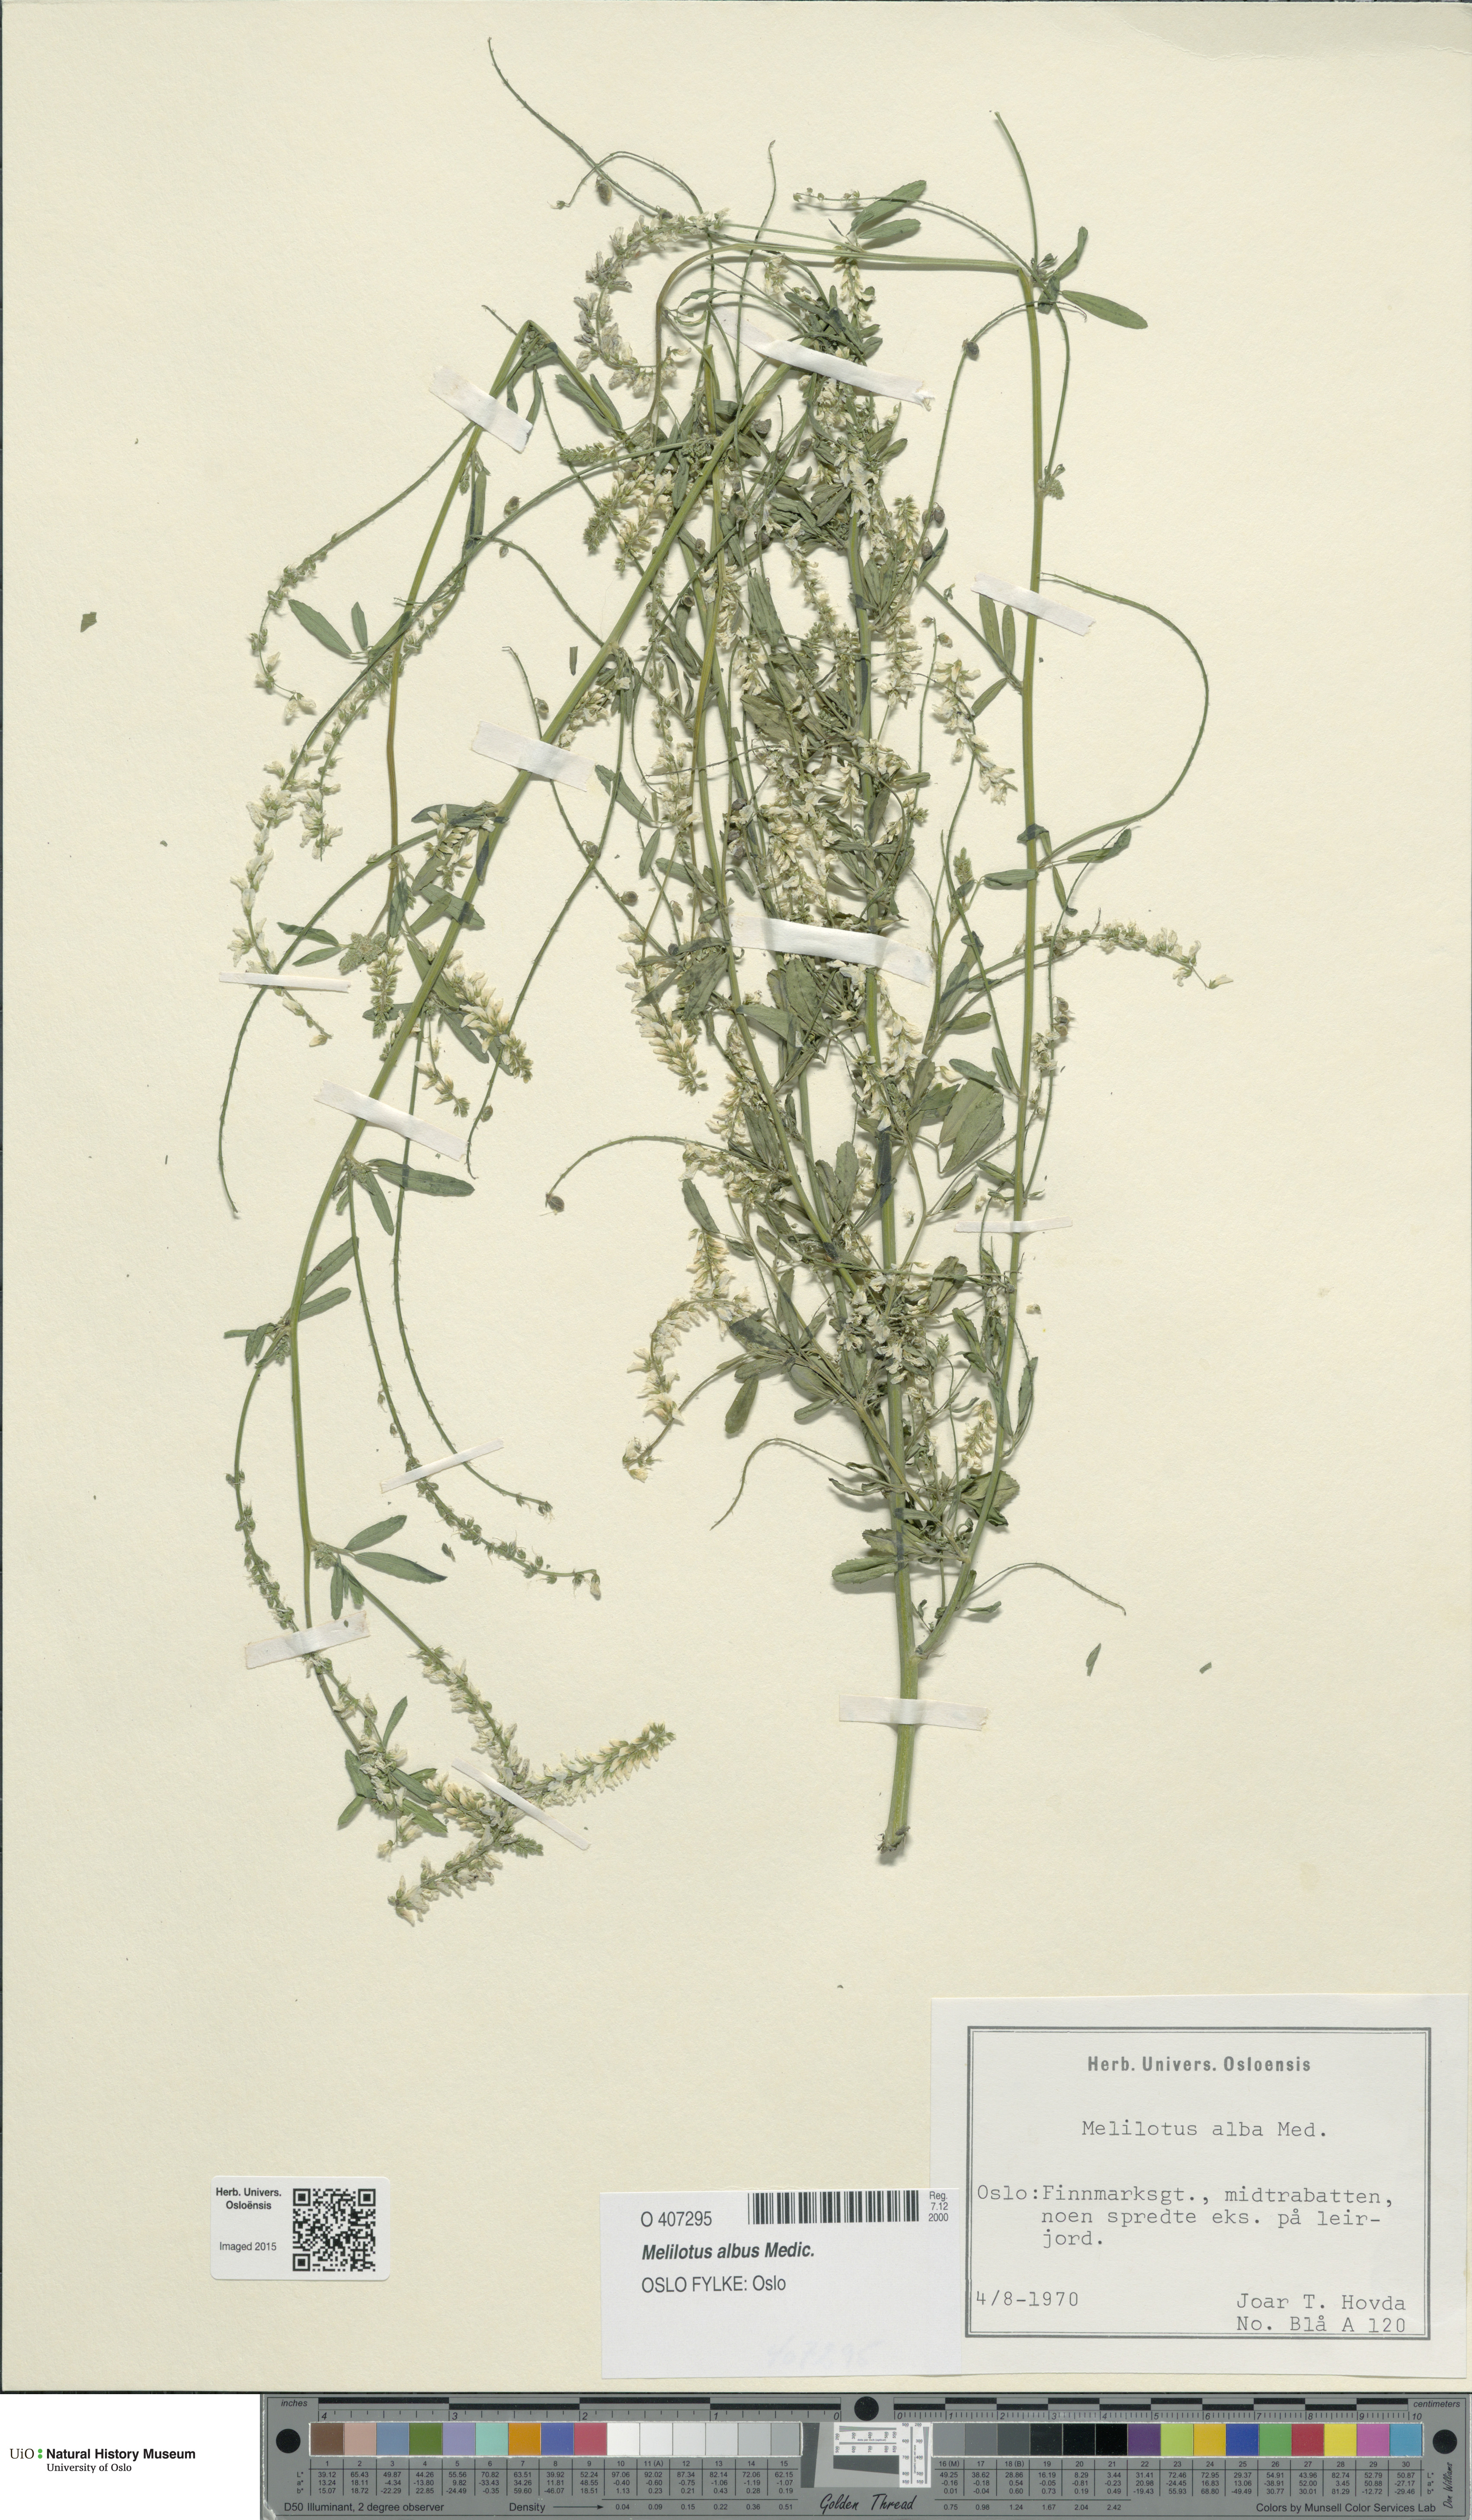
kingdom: Plantae
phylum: Tracheophyta
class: Magnoliopsida
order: Fabales
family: Fabaceae
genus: Melilotus
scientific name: Melilotus albus
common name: White melilot
